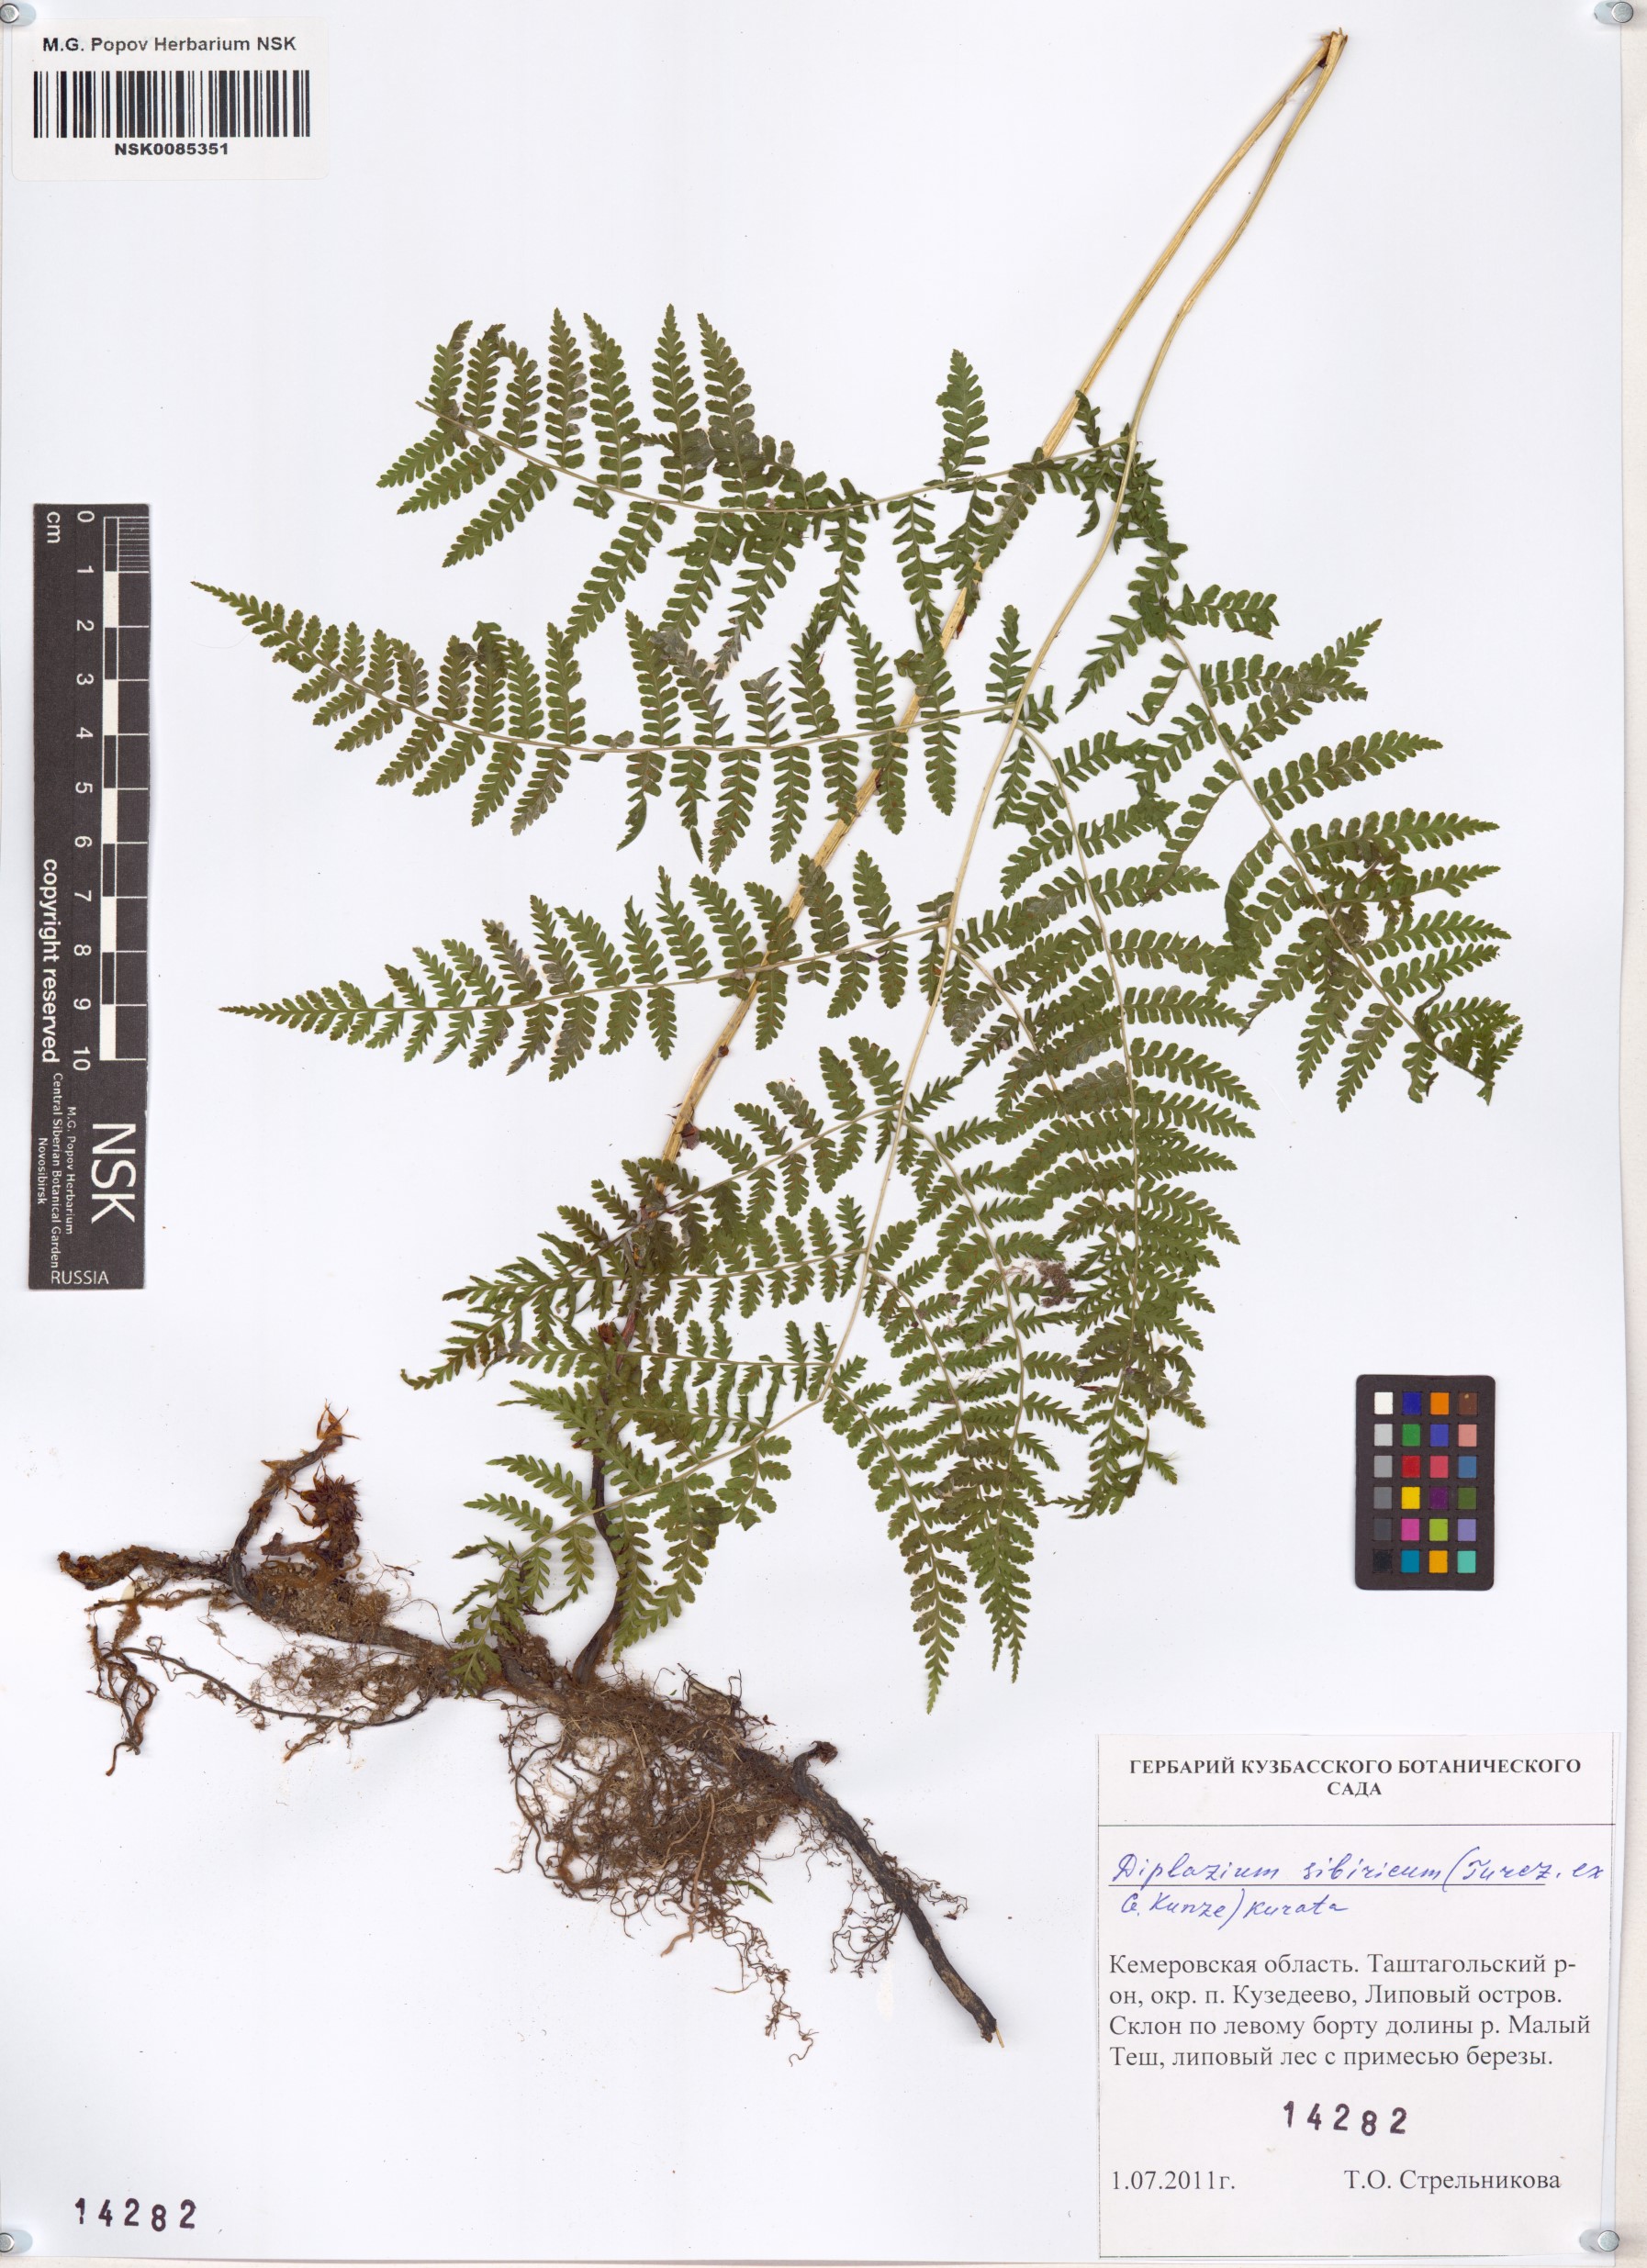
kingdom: Plantae
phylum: Tracheophyta
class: Polypodiopsida
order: Polypodiales
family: Athyriaceae
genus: Diplazium
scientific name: Diplazium sibiricum
